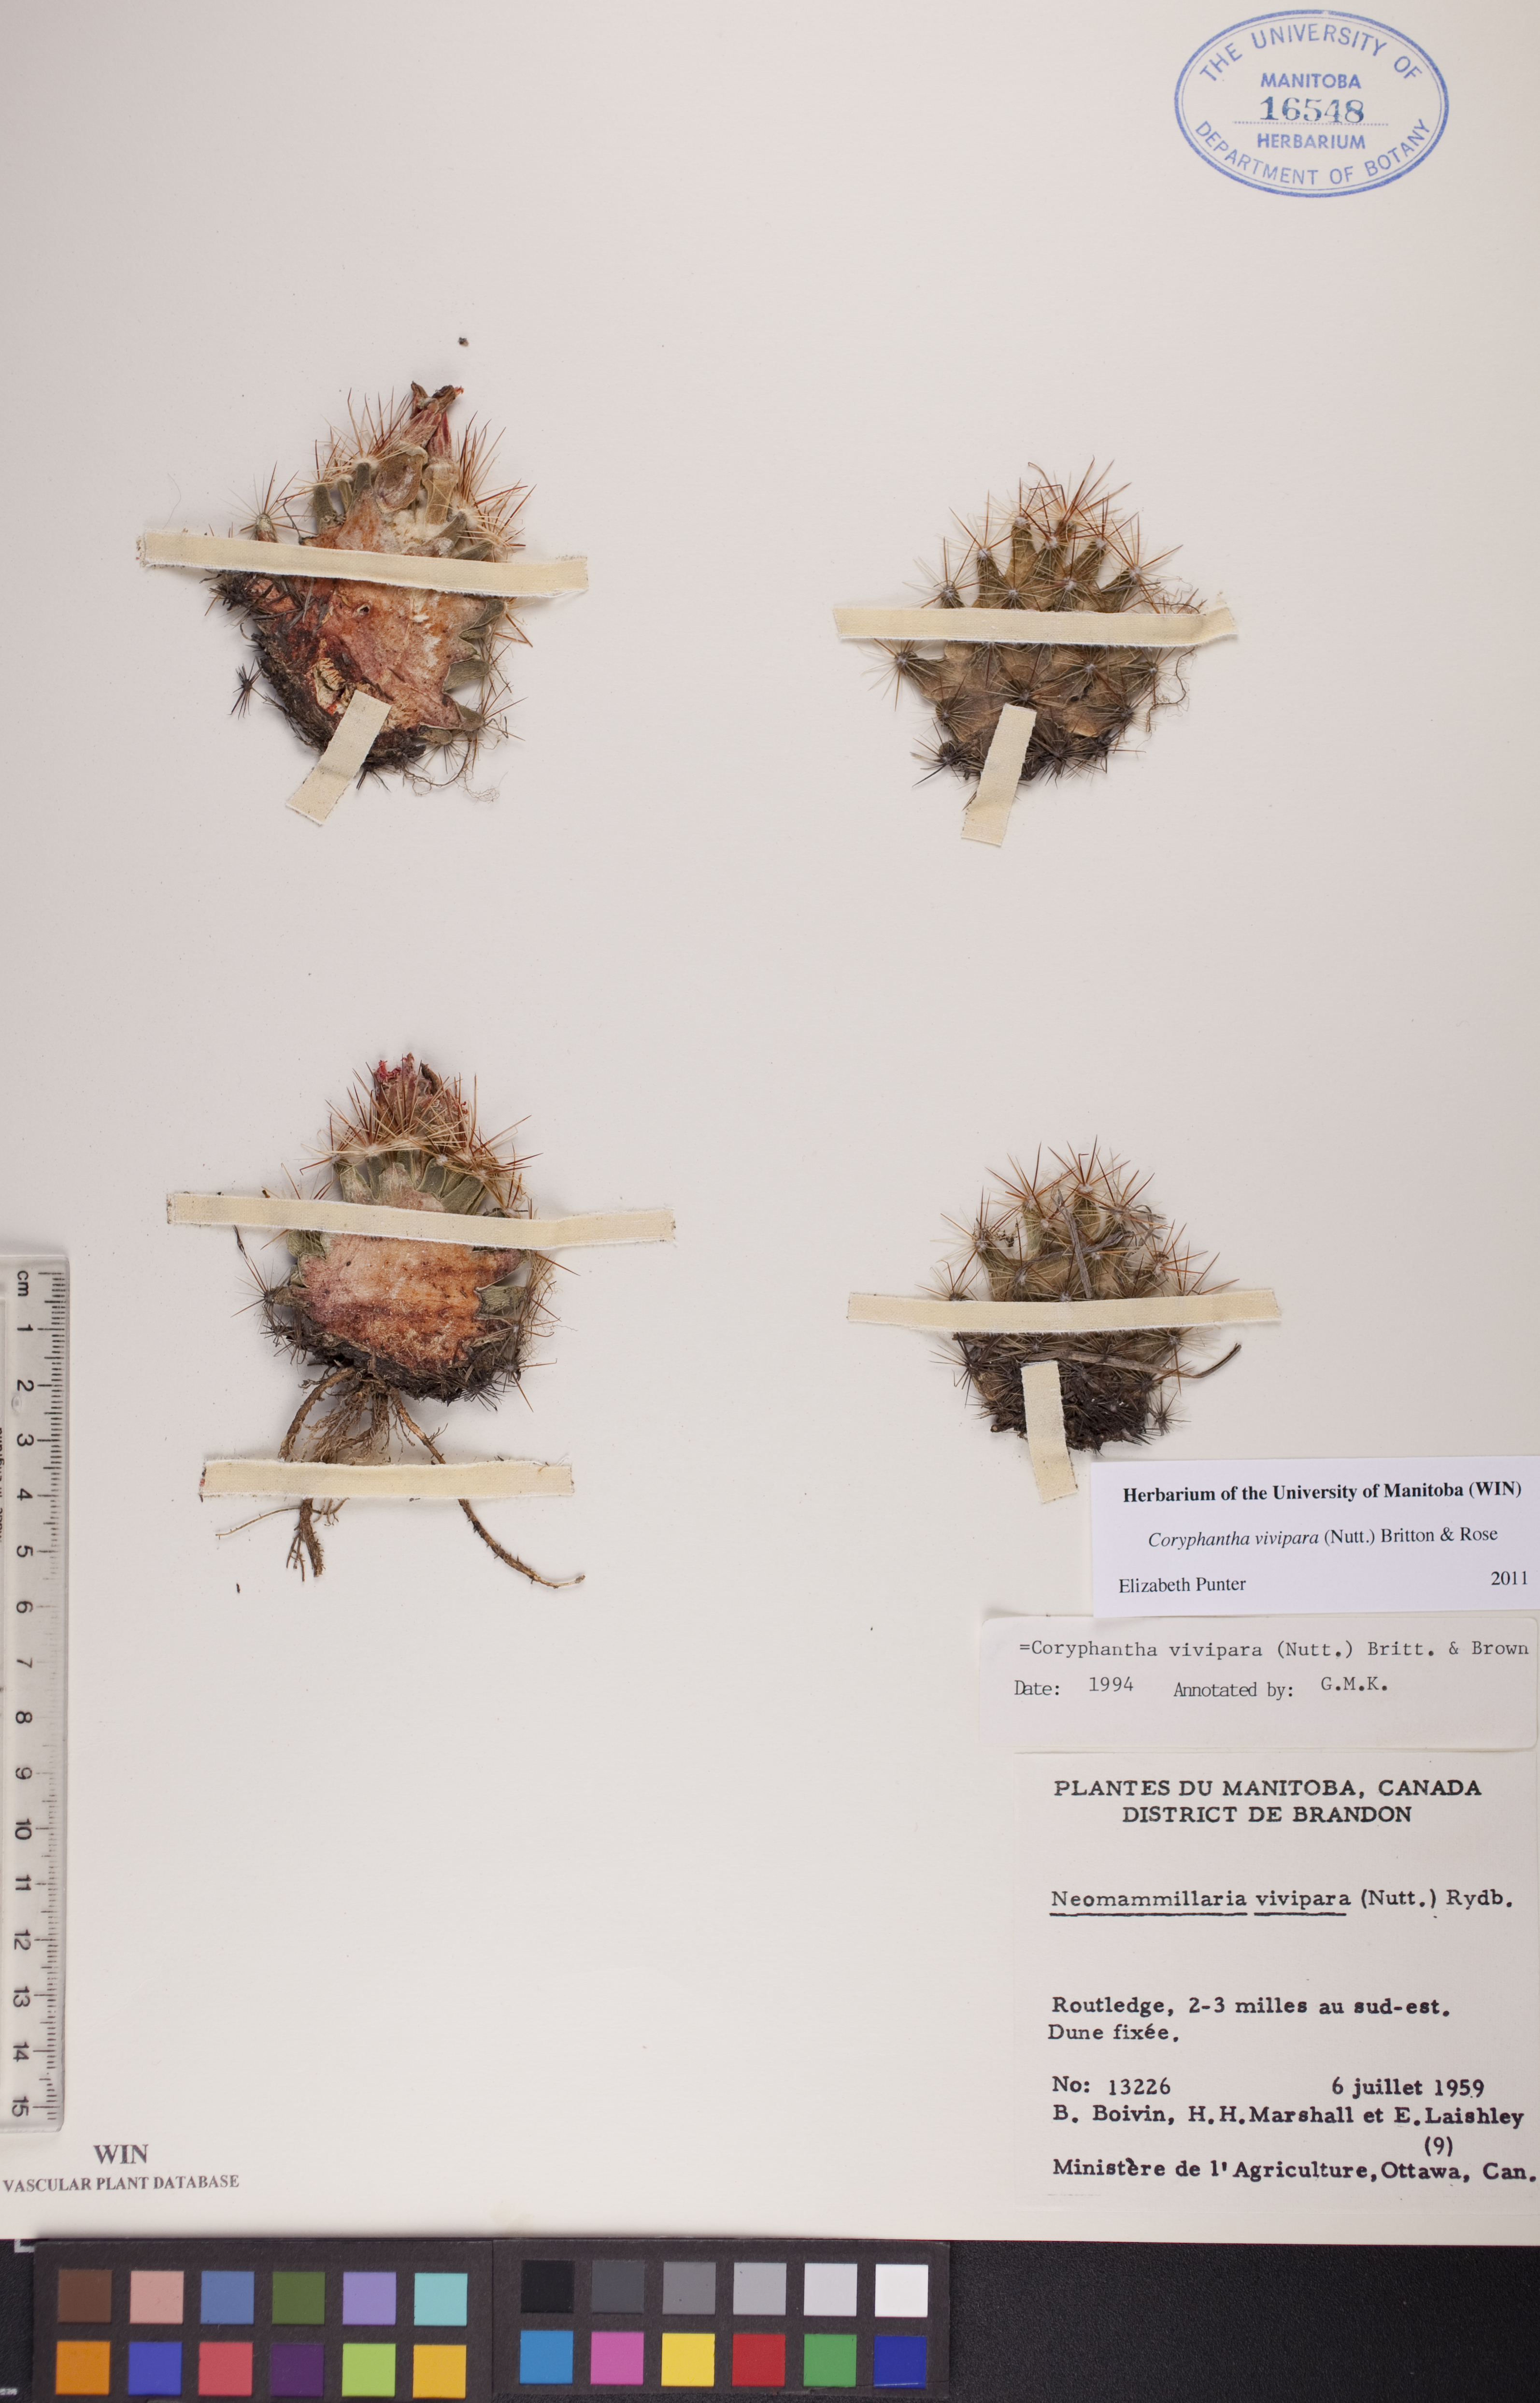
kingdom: Plantae
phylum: Tracheophyta
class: Magnoliopsida
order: Caryophyllales
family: Cactaceae
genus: Pelecyphora
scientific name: Pelecyphora vivipara
